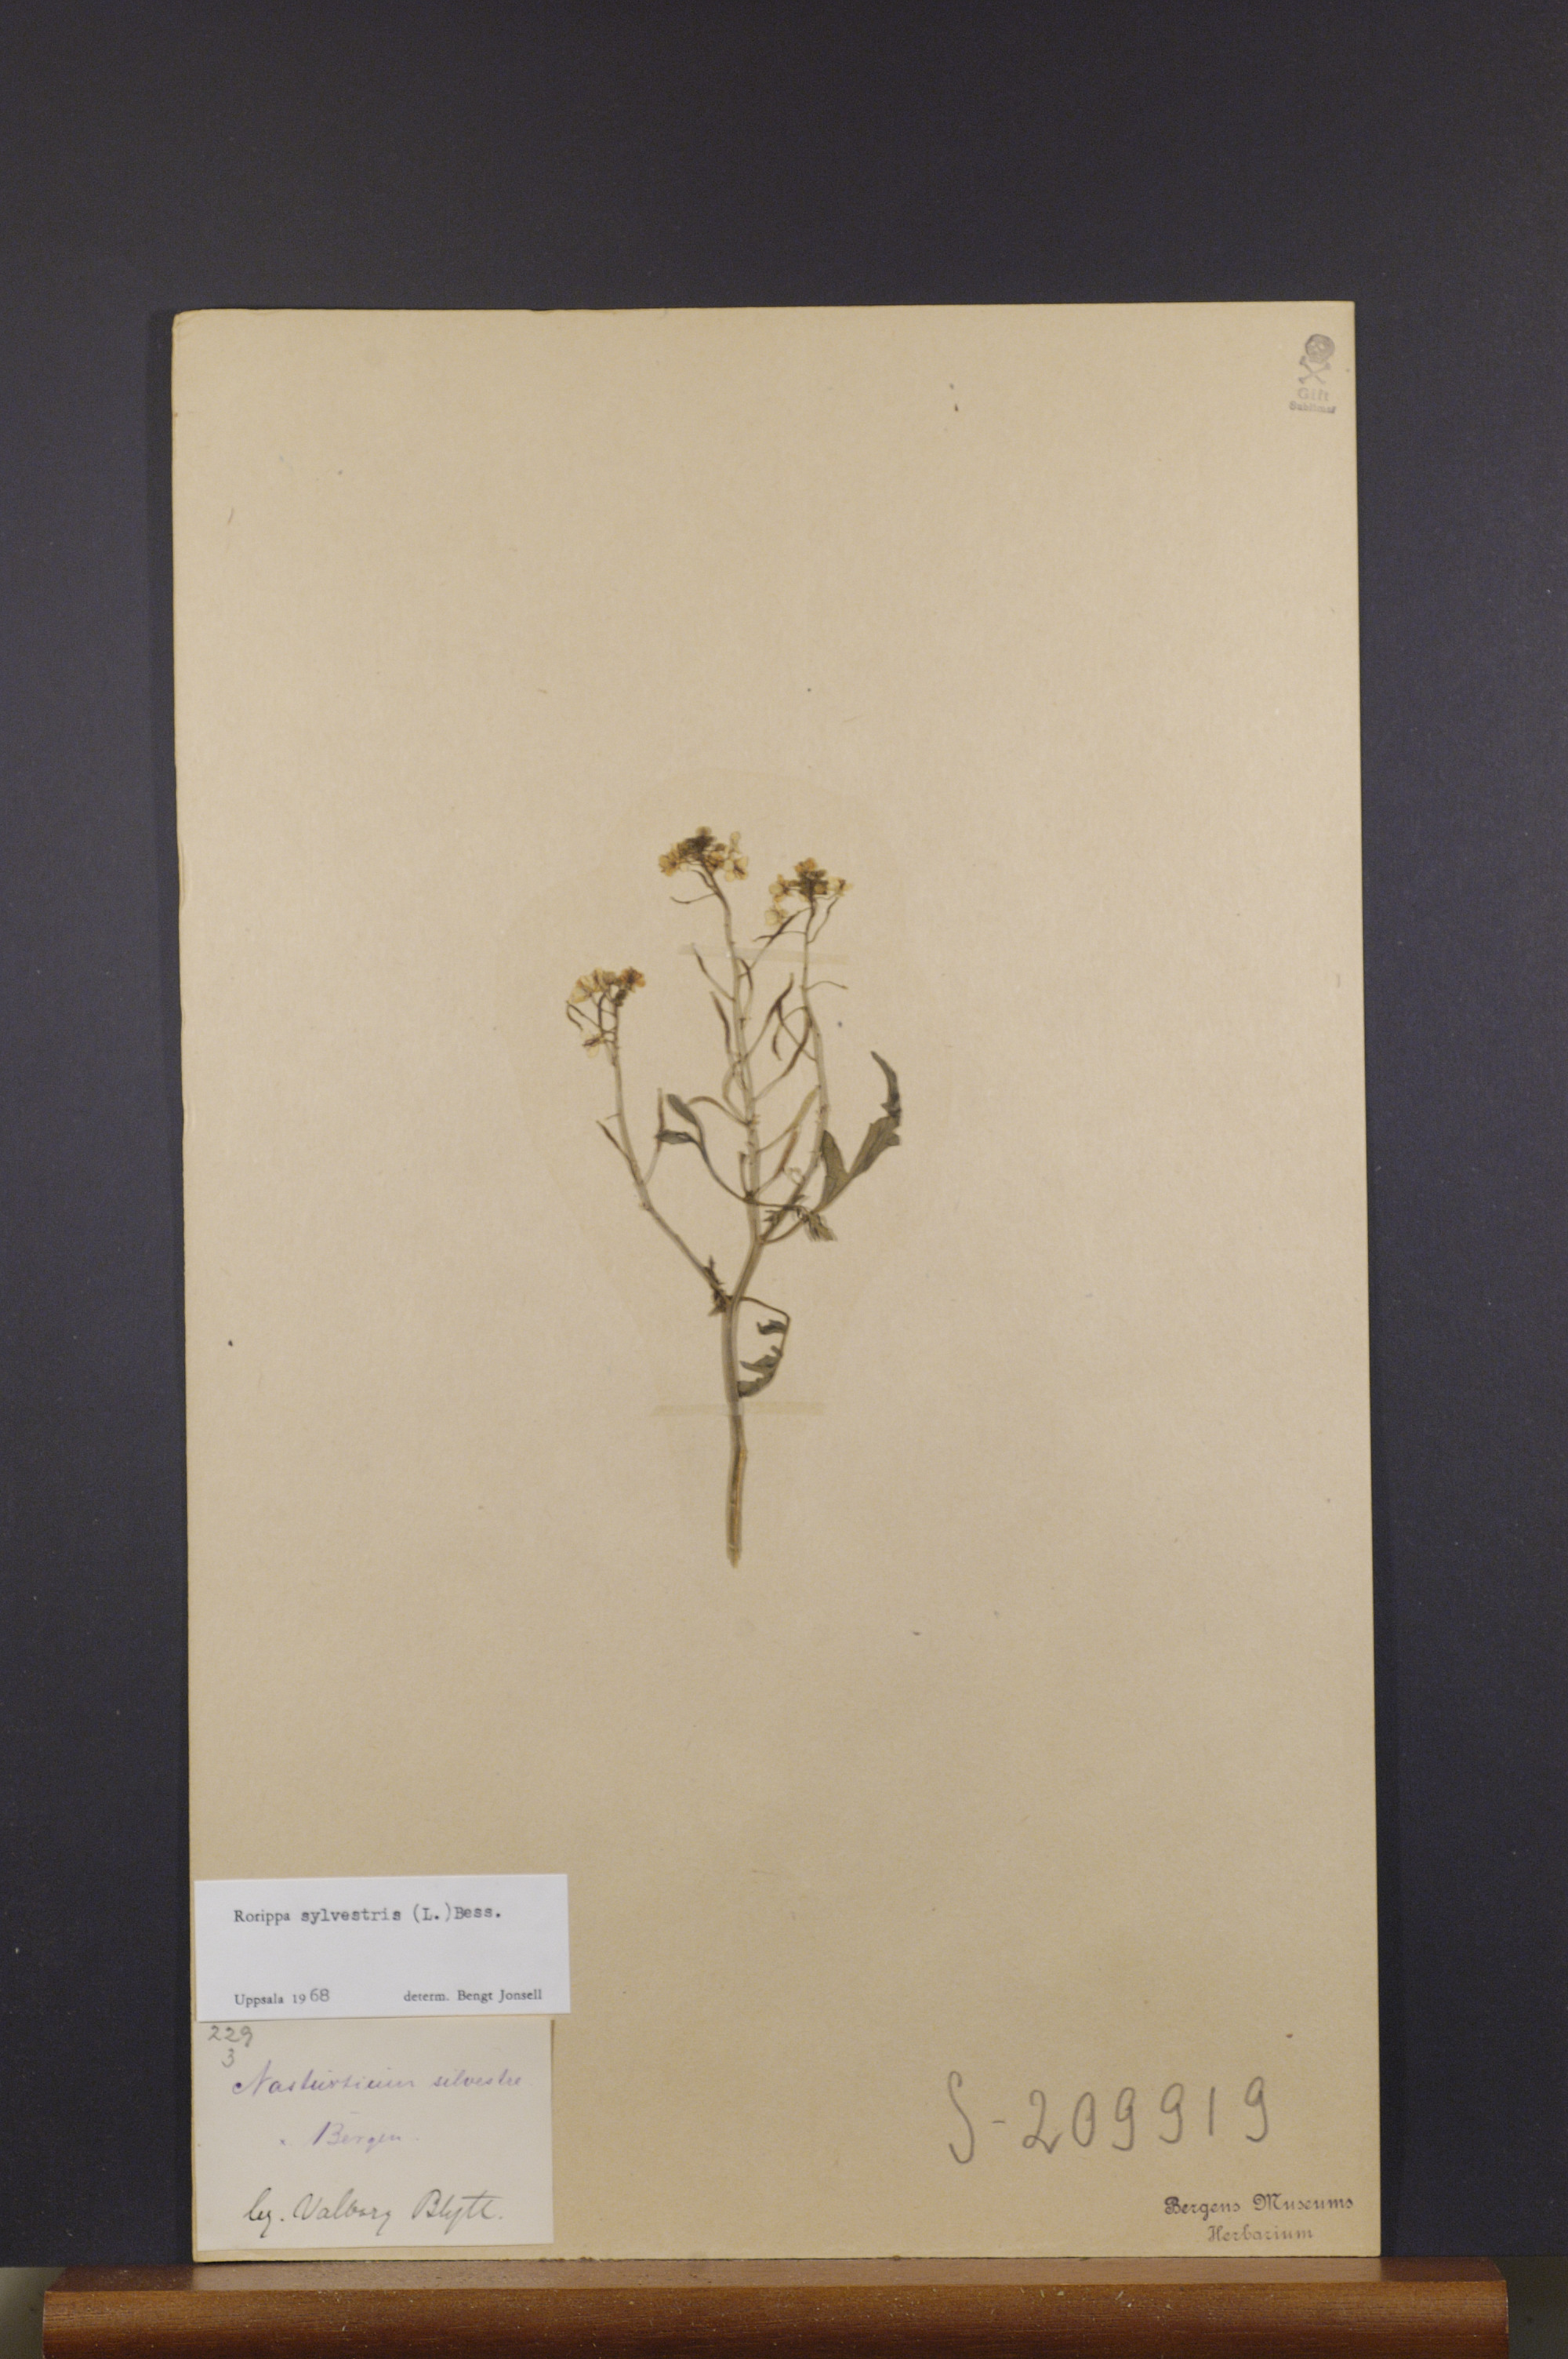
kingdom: Plantae
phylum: Tracheophyta
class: Magnoliopsida
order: Brassicales
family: Brassicaceae
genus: Rorippa
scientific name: Rorippa sylvestris
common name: Creeping yellowcress
